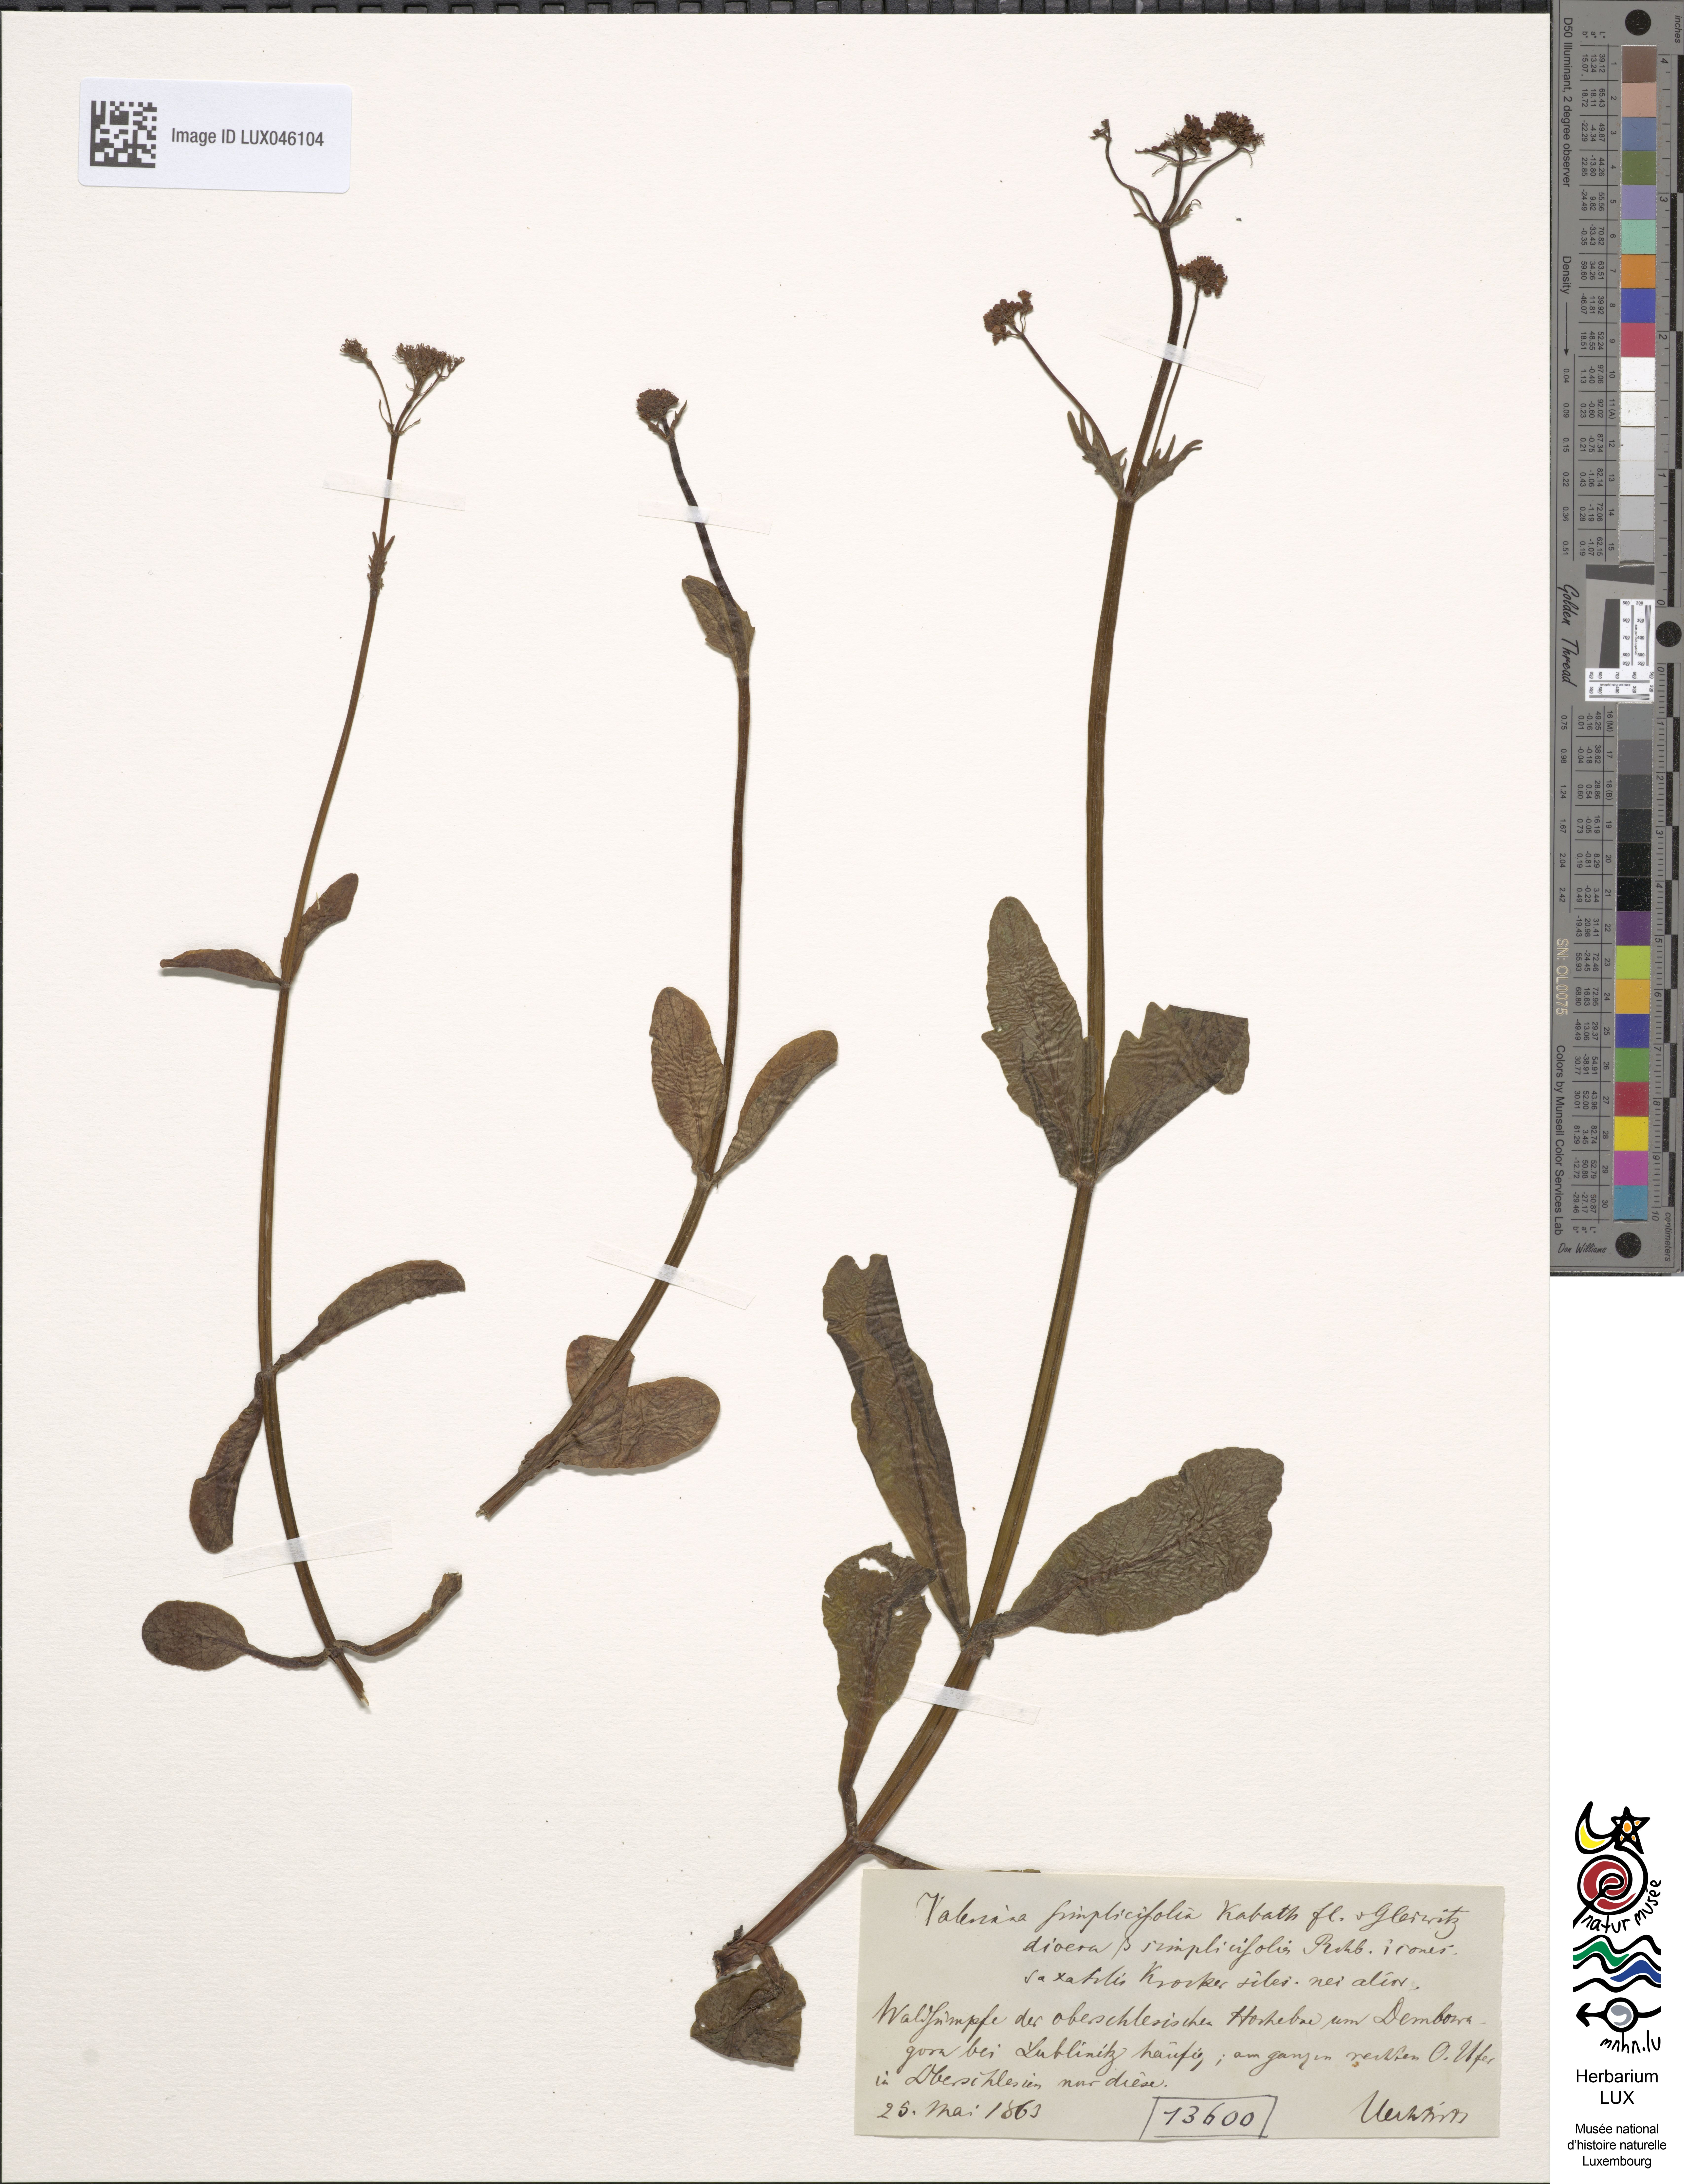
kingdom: Plantae
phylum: Tracheophyta
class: Magnoliopsida
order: Dipsacales
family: Caprifoliaceae
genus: Valeriana
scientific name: Valeriana dioica
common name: Marsh valerian
